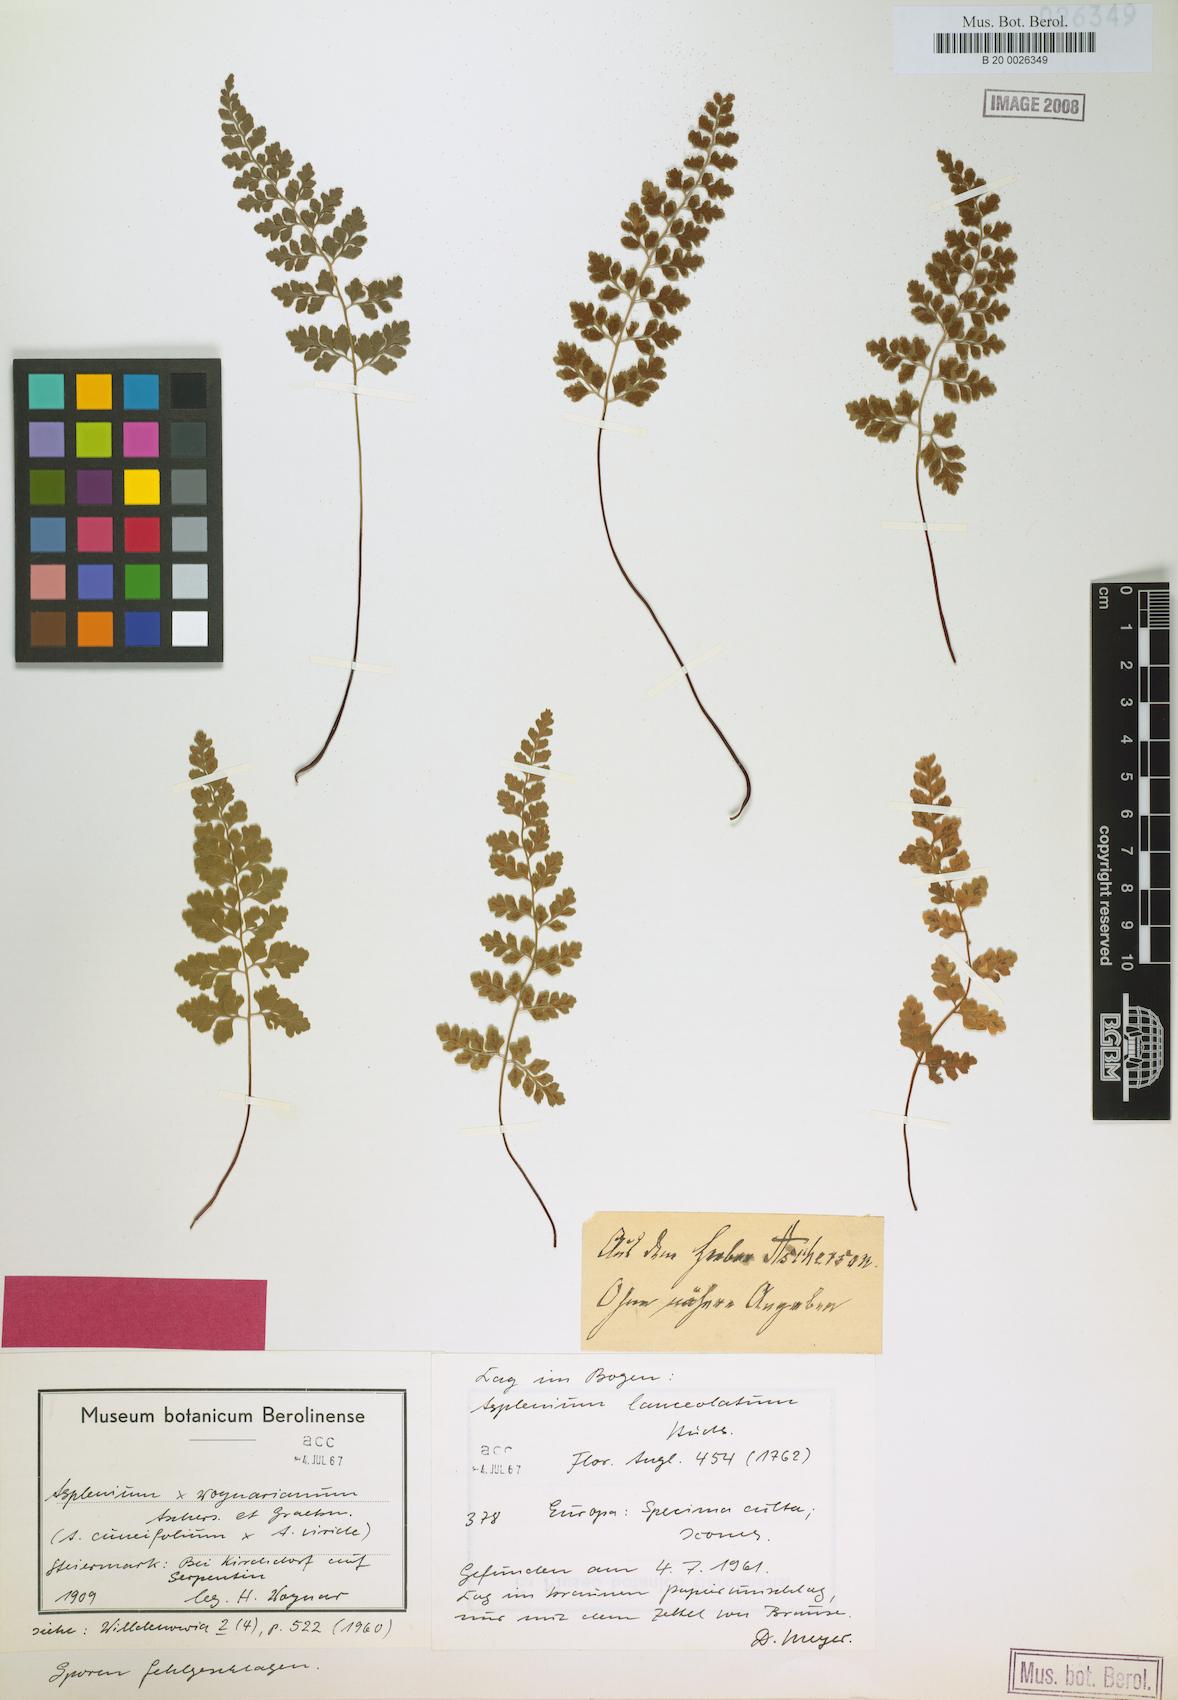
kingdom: Plantae
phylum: Tracheophyta
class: Polypodiopsida
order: Polypodiales
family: Aspleniaceae
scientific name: Aspleniaceae
